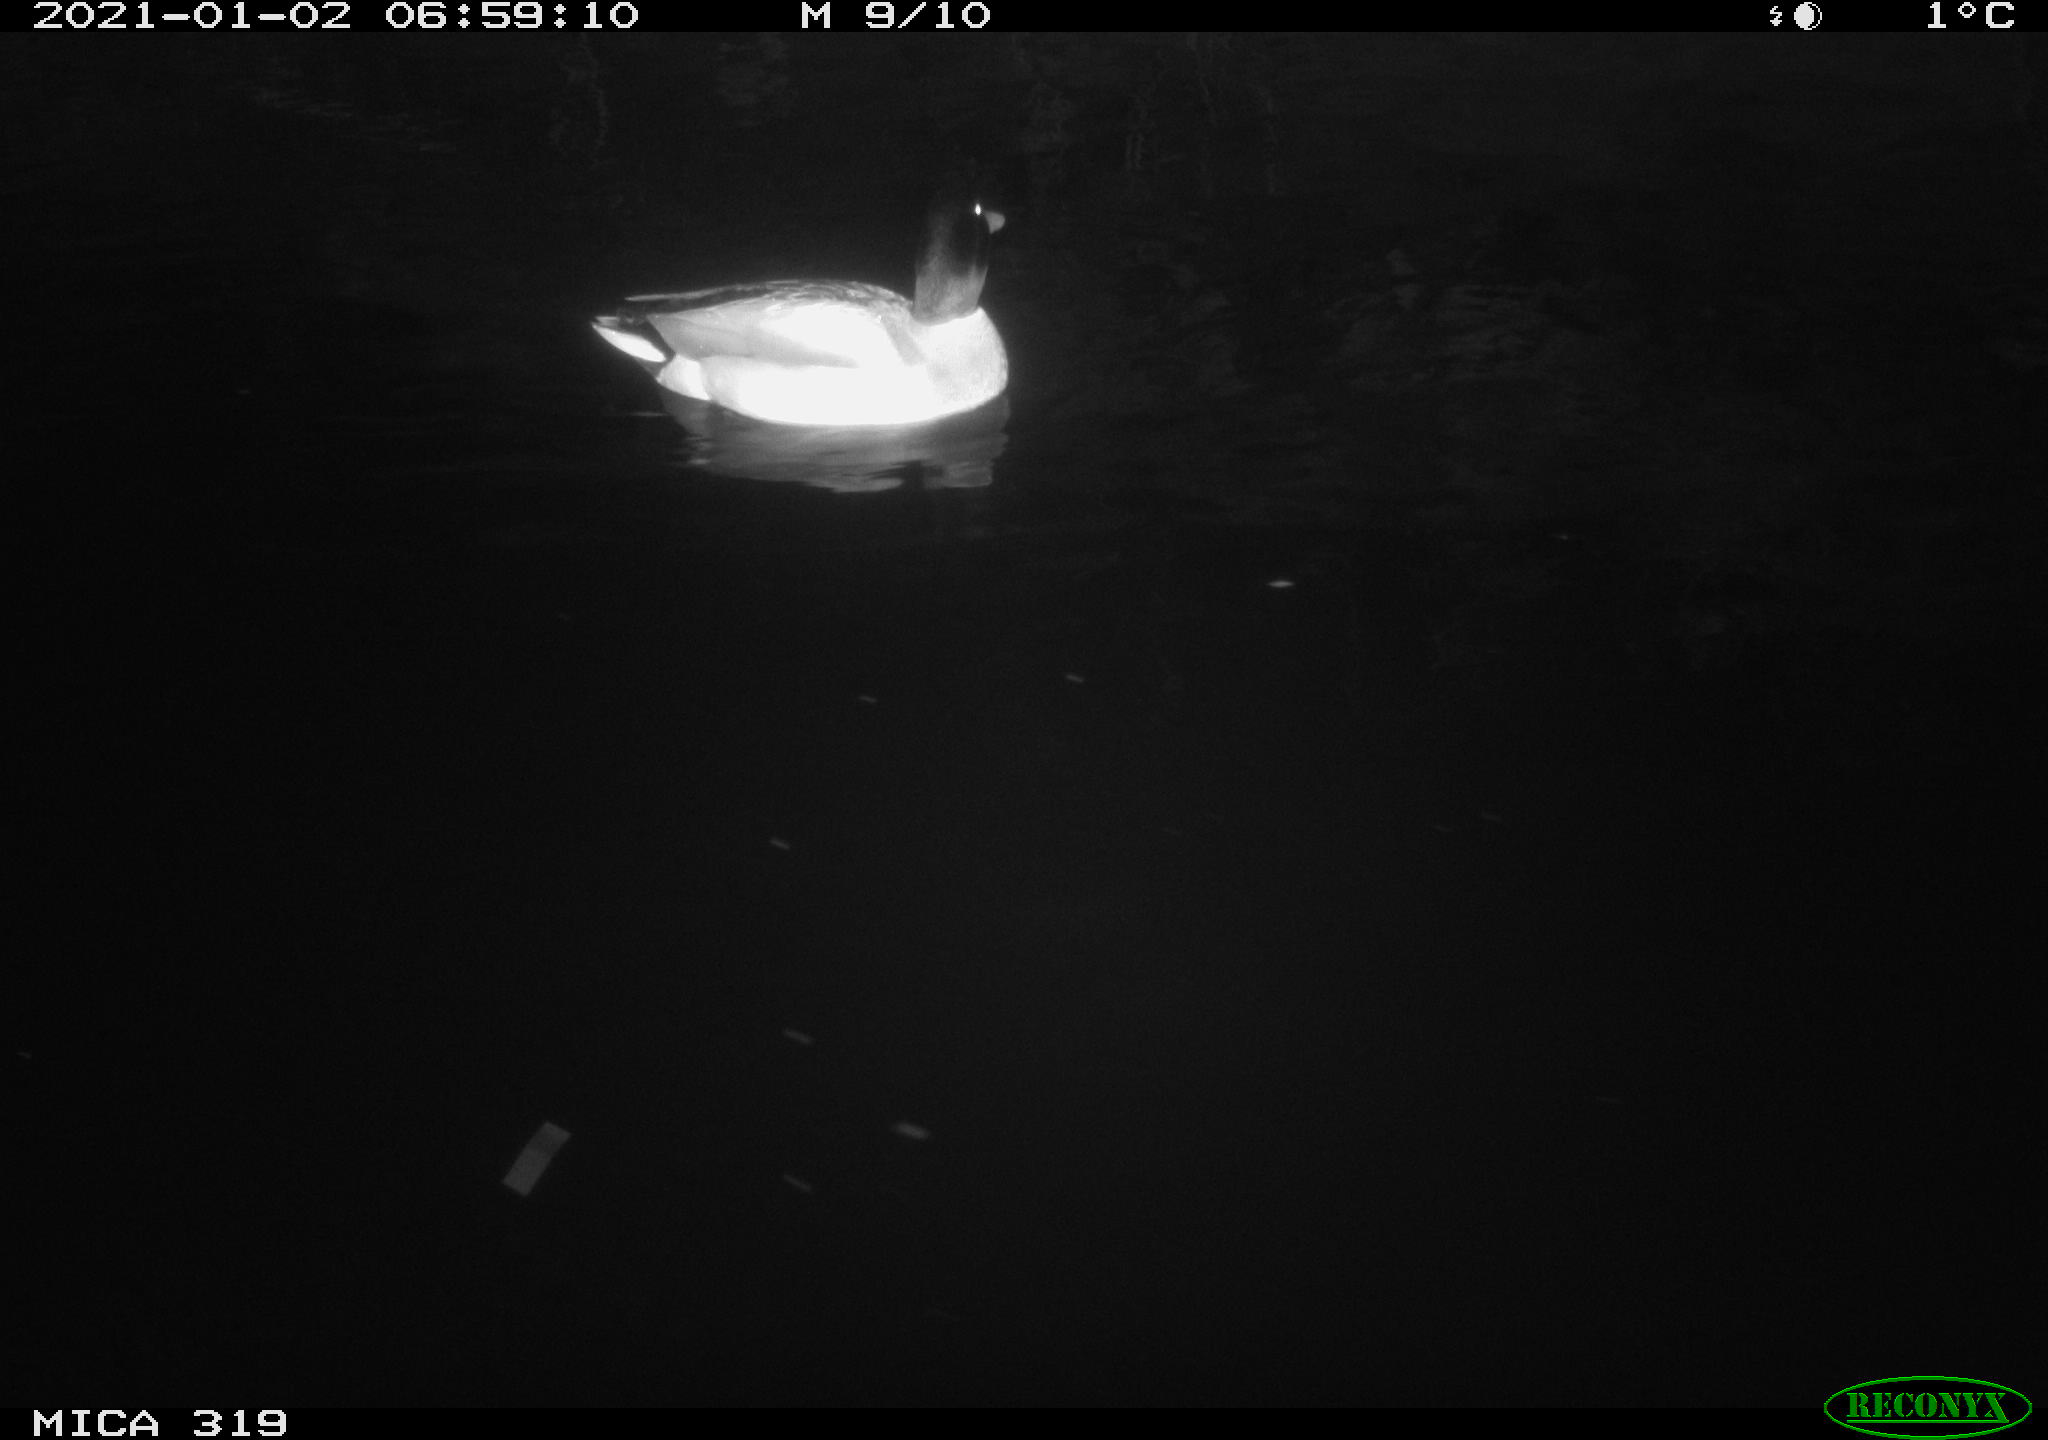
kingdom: Animalia
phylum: Chordata
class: Aves
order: Anseriformes
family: Anatidae
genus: Anas
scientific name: Anas platyrhynchos
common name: Mallard
